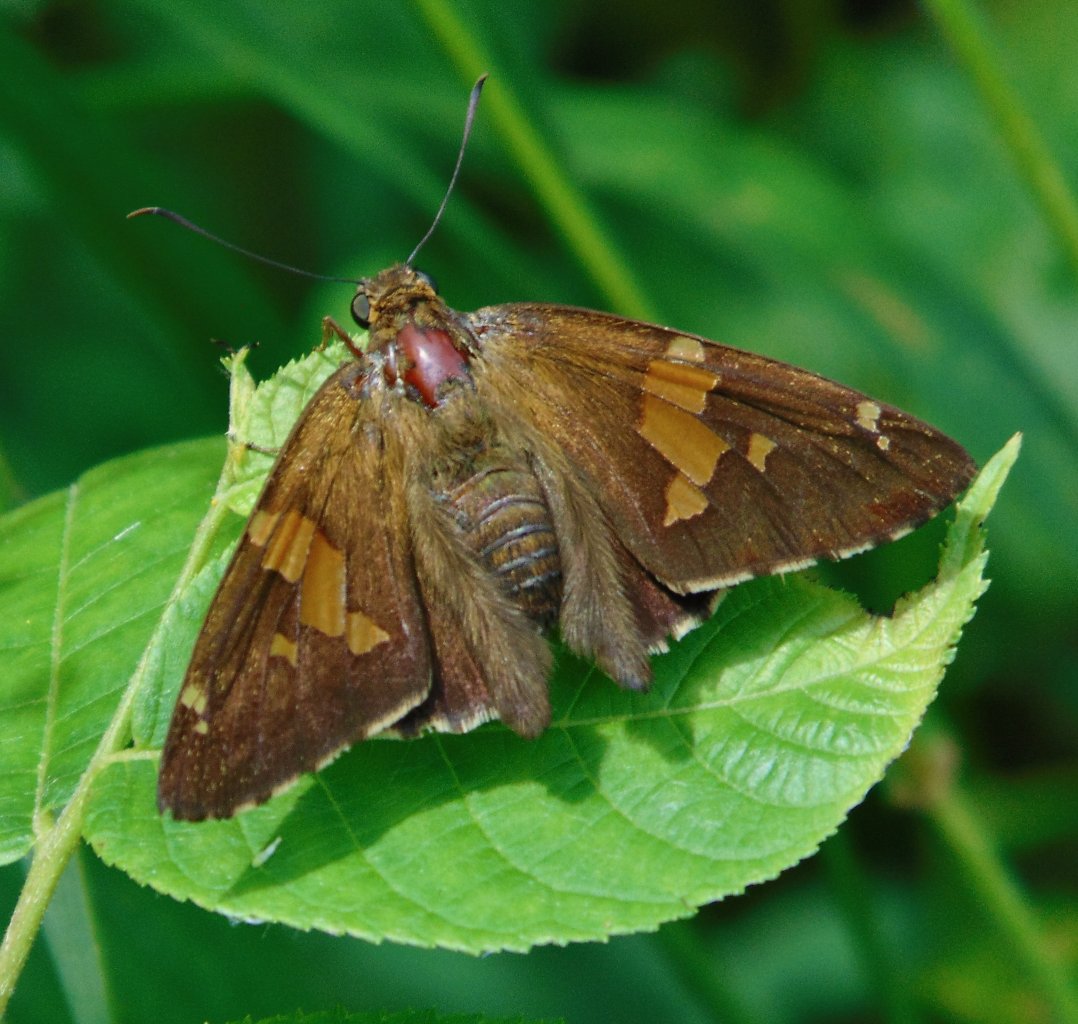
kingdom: Animalia
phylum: Arthropoda
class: Insecta
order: Lepidoptera
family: Hesperiidae
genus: Epargyreus
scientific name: Epargyreus clarus
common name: Silver-spotted Skipper
